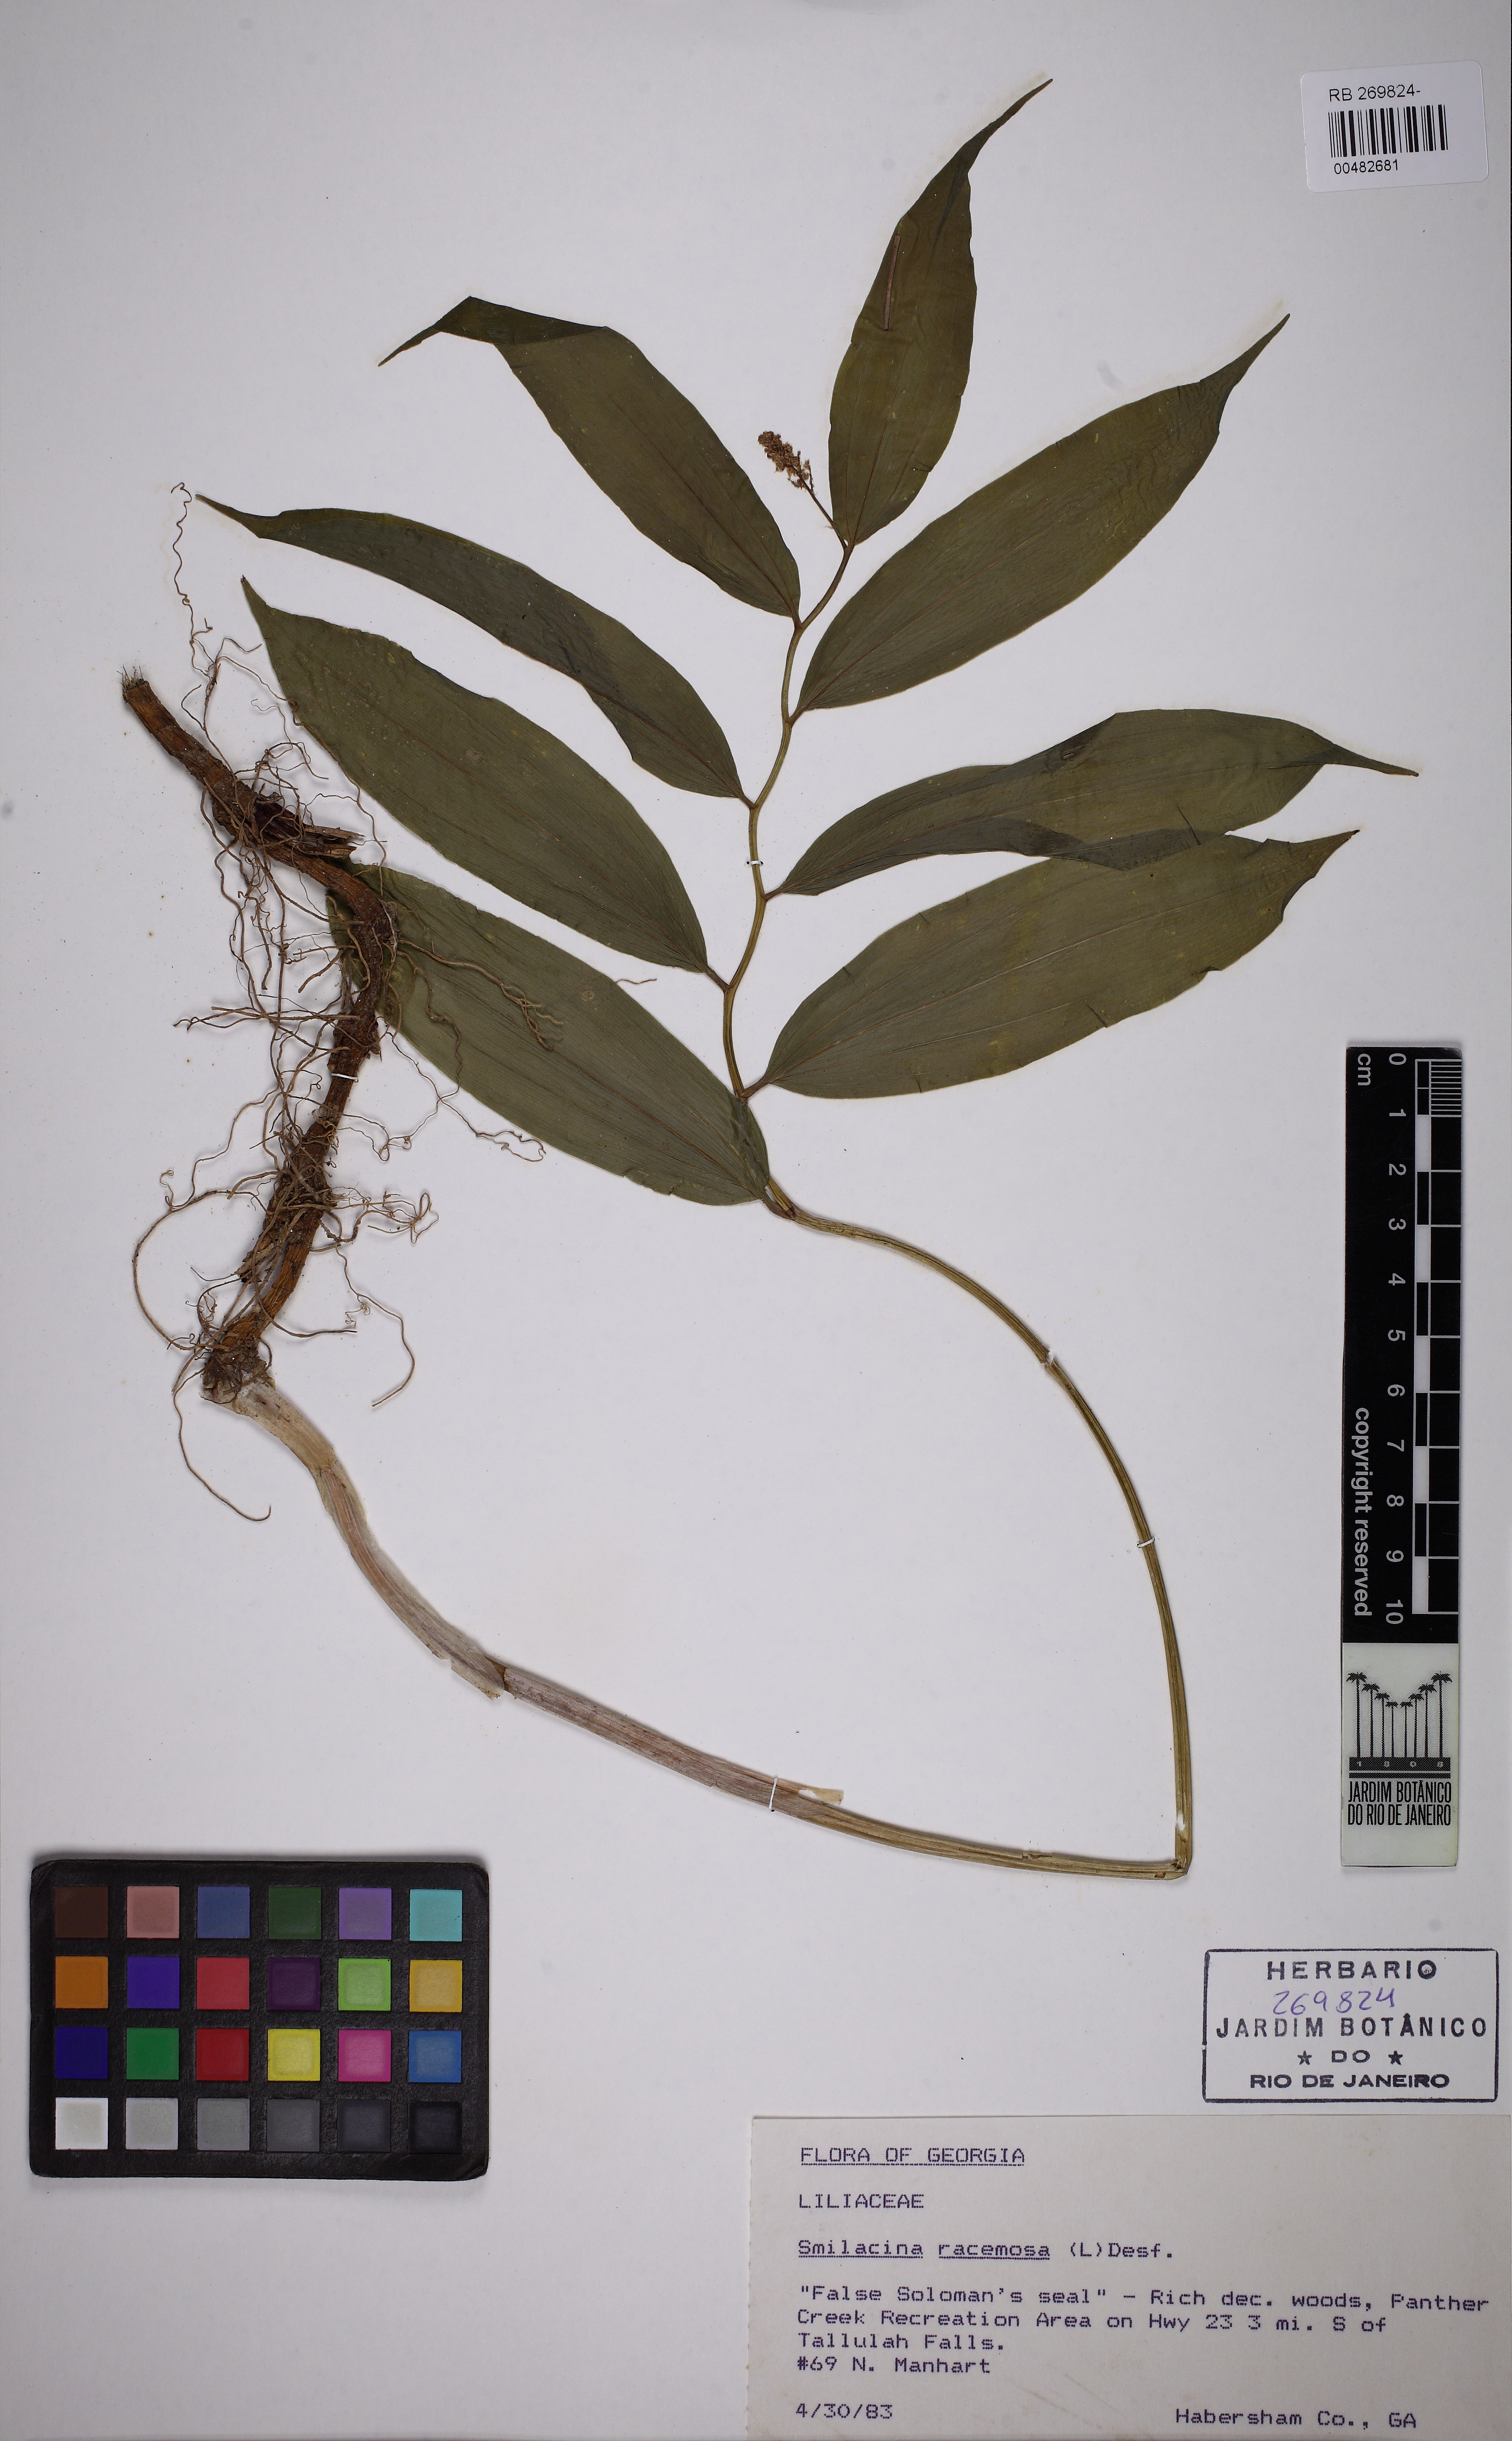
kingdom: Plantae
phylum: Tracheophyta
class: Liliopsida
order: Asparagales
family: Asparagaceae
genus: Maianthemum
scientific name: Maianthemum racemosum
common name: False spikenard
